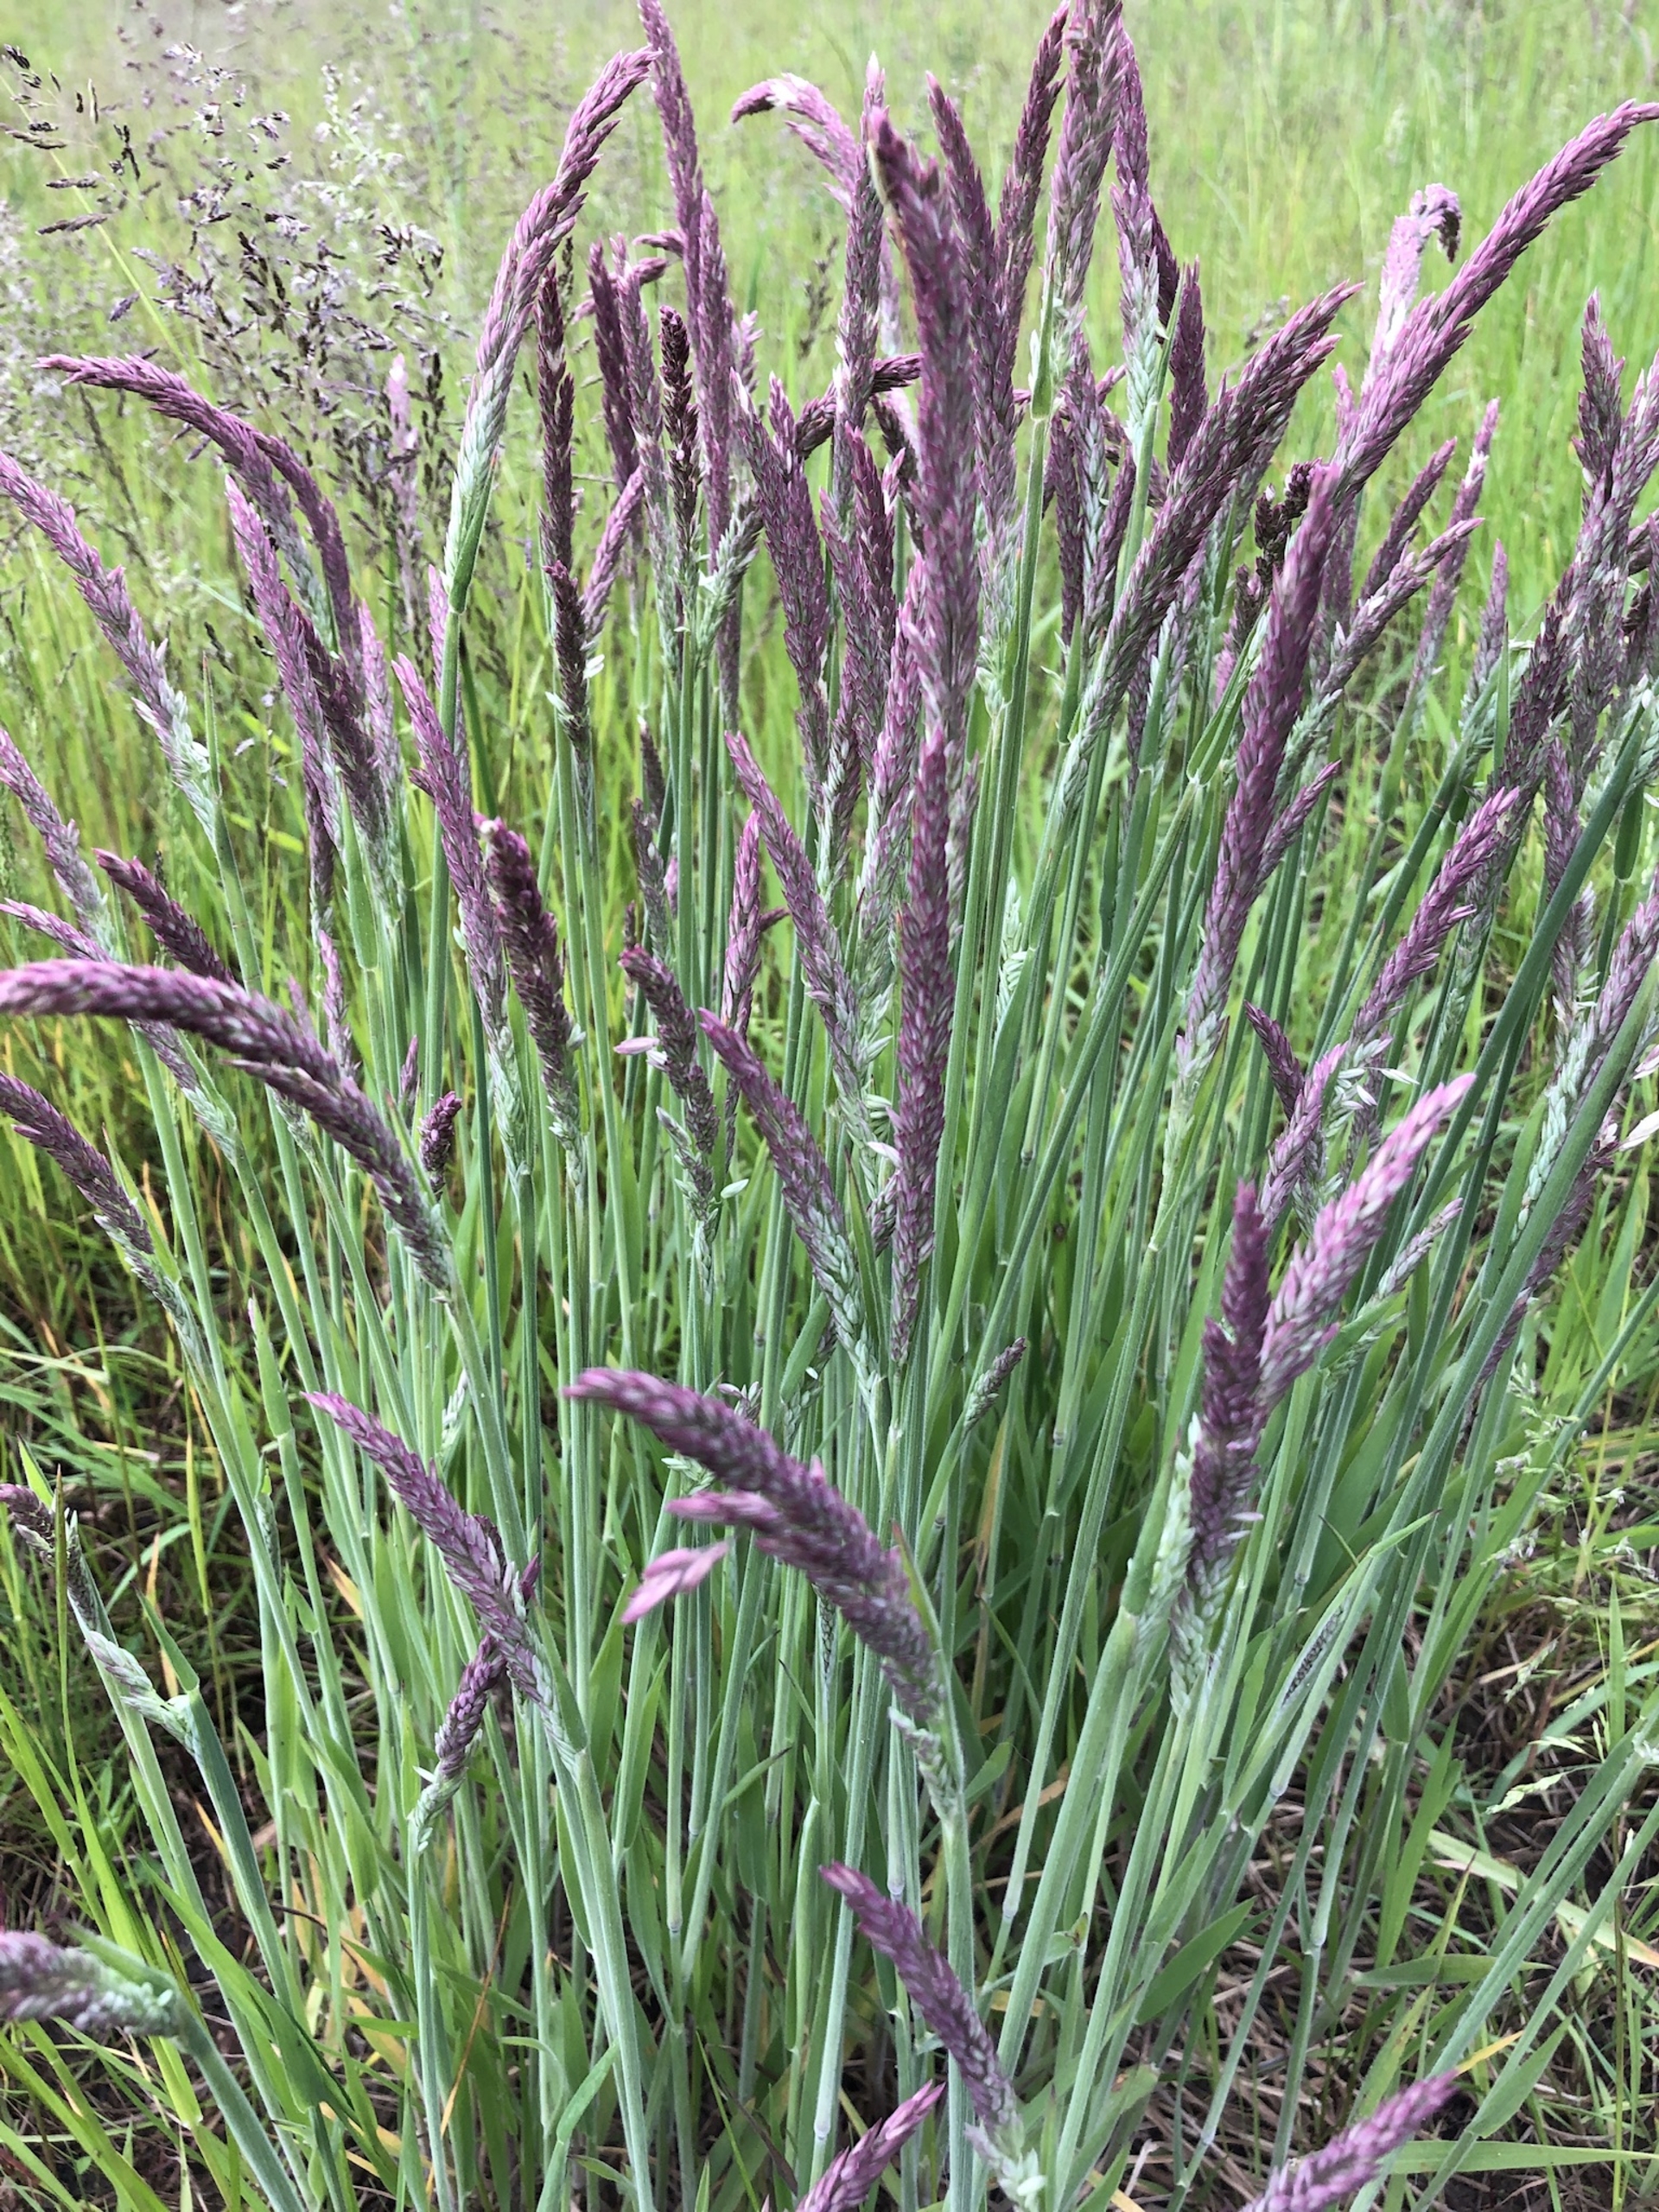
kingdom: Plantae
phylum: Tracheophyta
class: Liliopsida
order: Poales
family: Poaceae
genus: Holcus
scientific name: Holcus lanatus
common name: Fløjlsgræs
